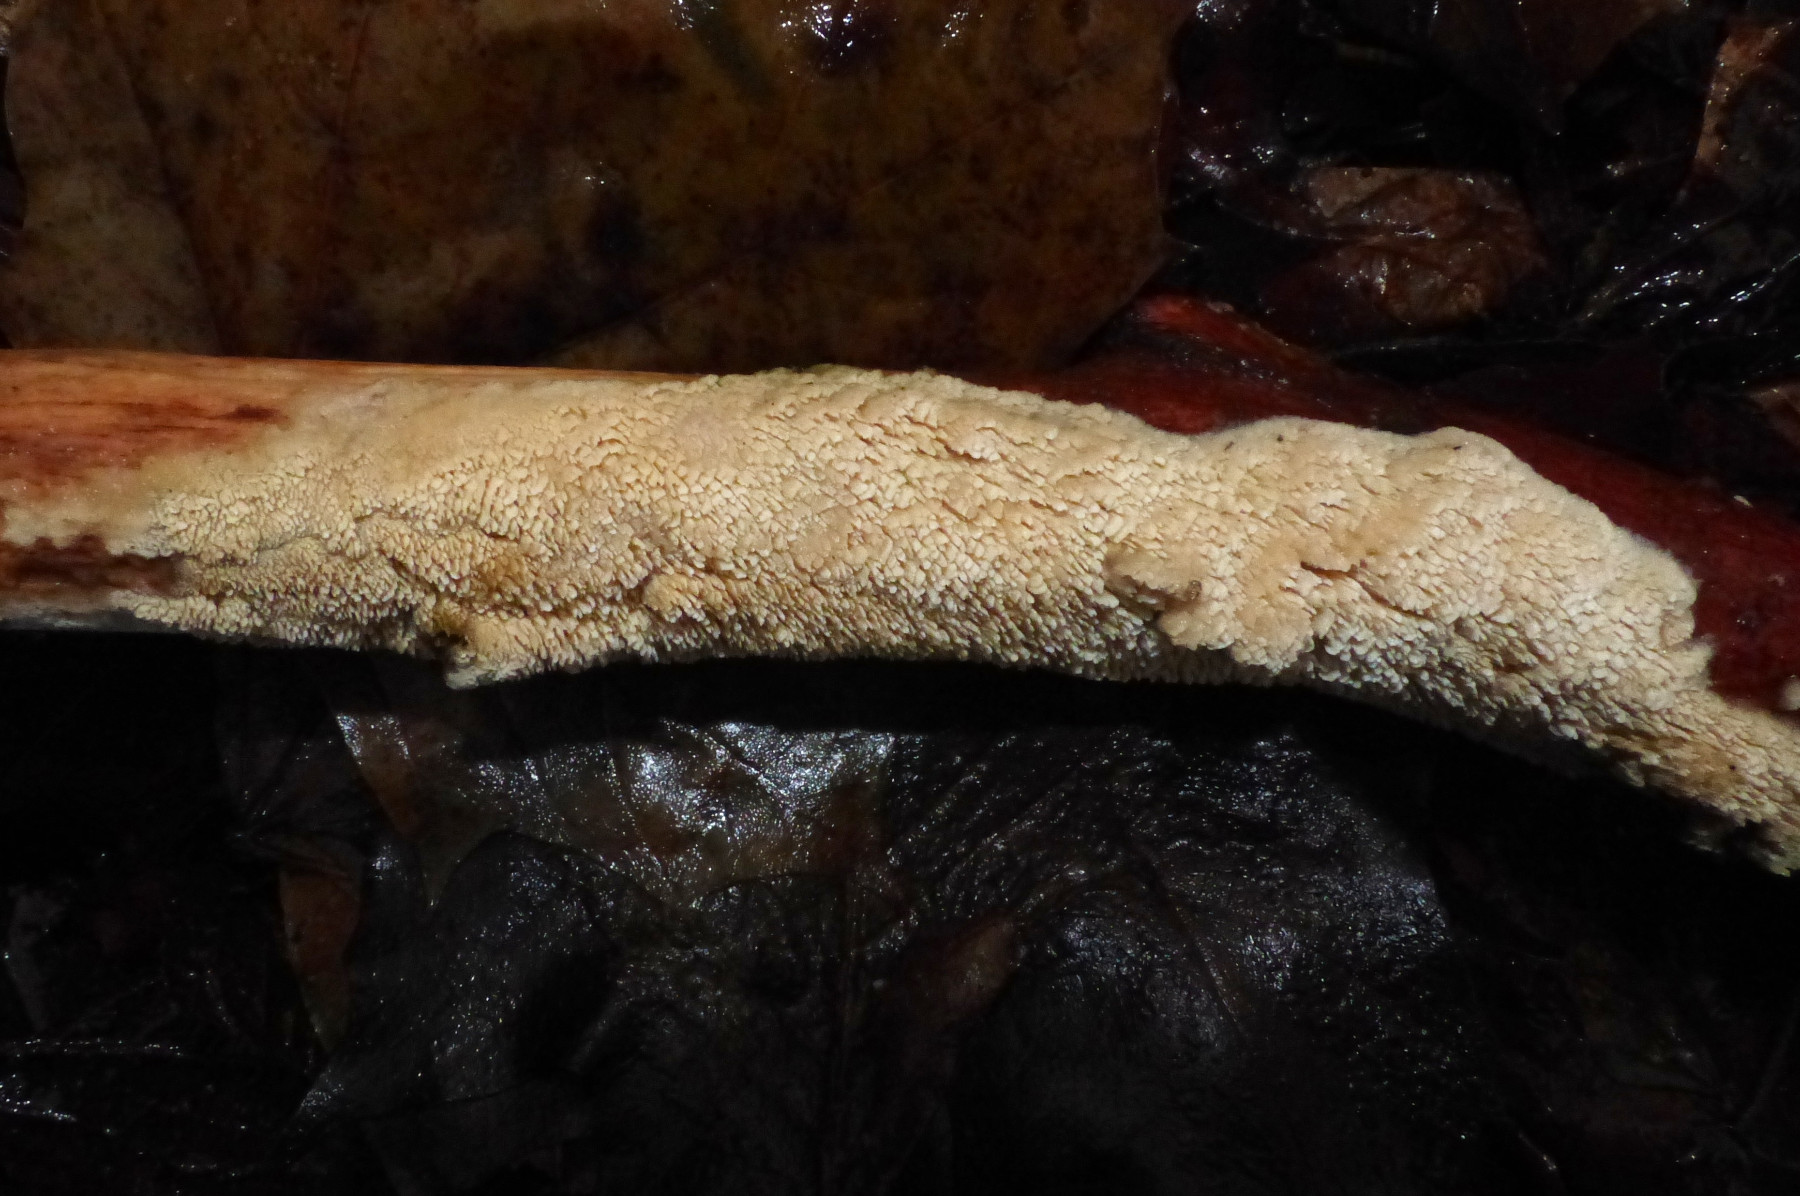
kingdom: Fungi
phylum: Basidiomycota
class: Agaricomycetes
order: Hymenochaetales
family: Schizoporaceae
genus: Schizopora
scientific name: Schizopora paradoxa
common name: hvid tandsvamp
